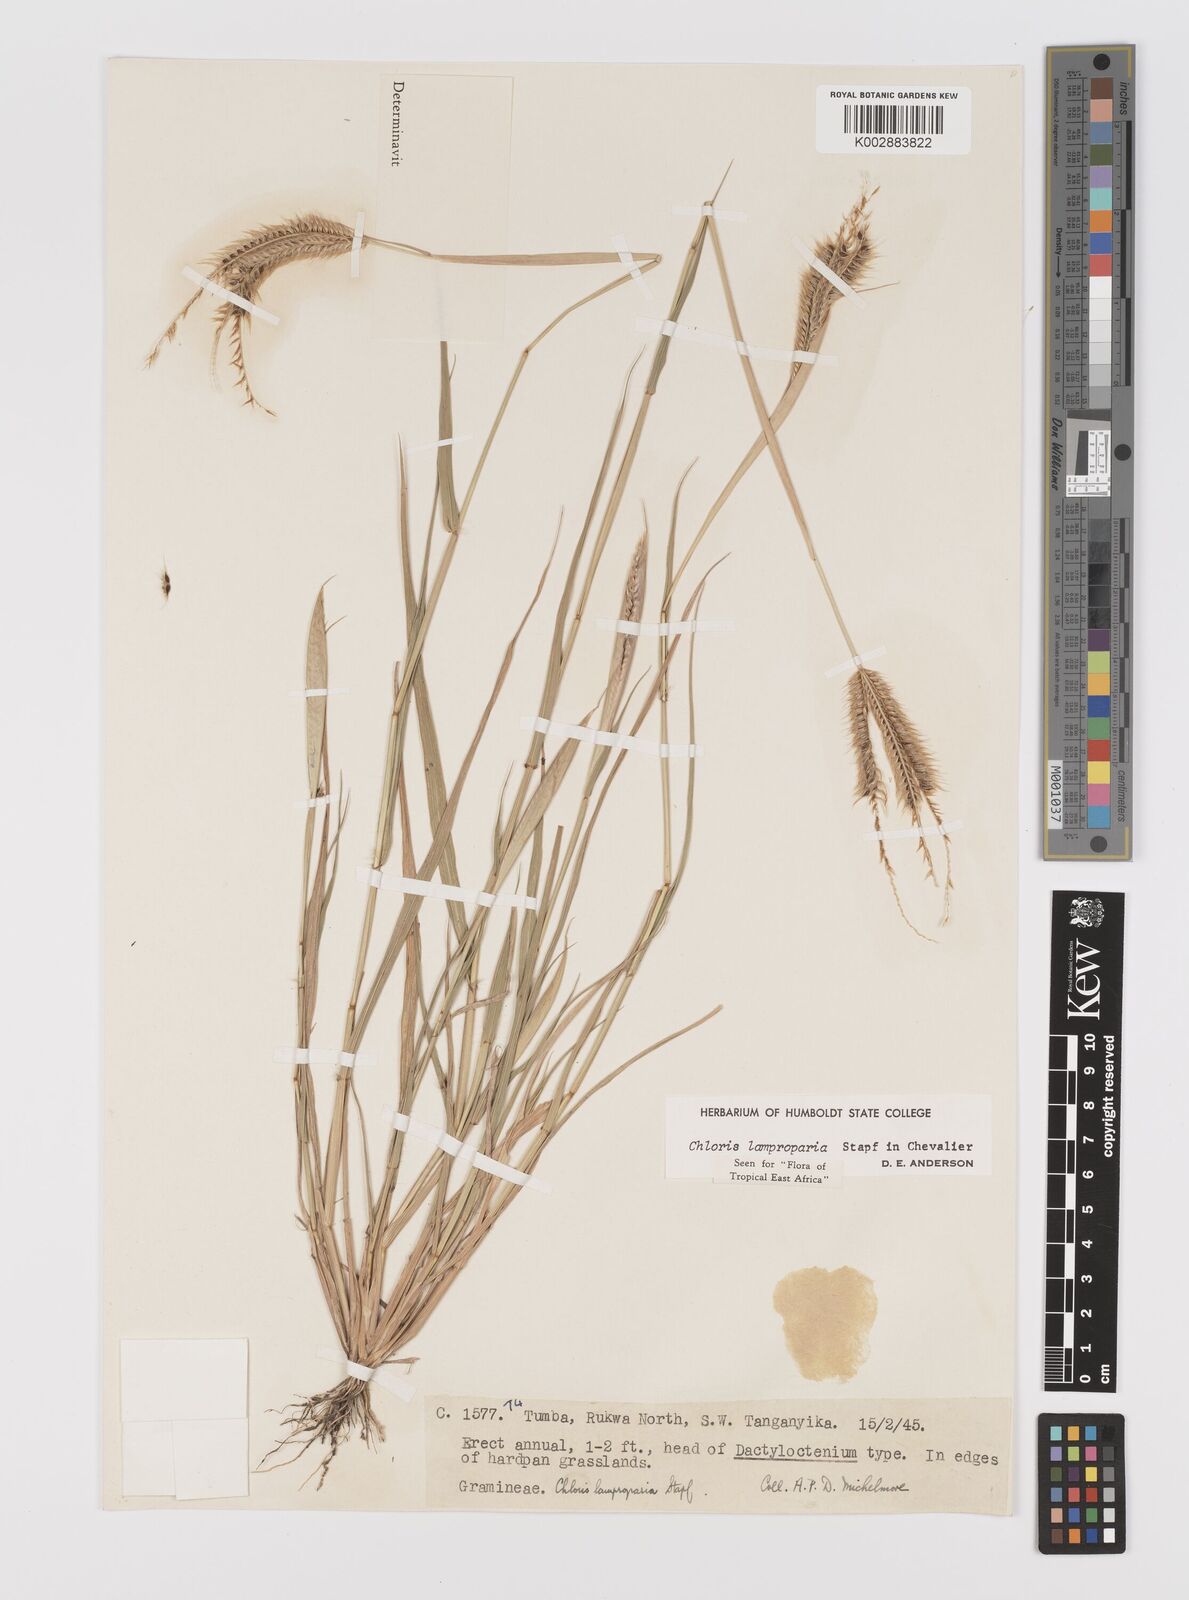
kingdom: Plantae
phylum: Tracheophyta
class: Liliopsida
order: Poales
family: Poaceae
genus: Stapfochloa
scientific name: Stapfochloa lamproparia
